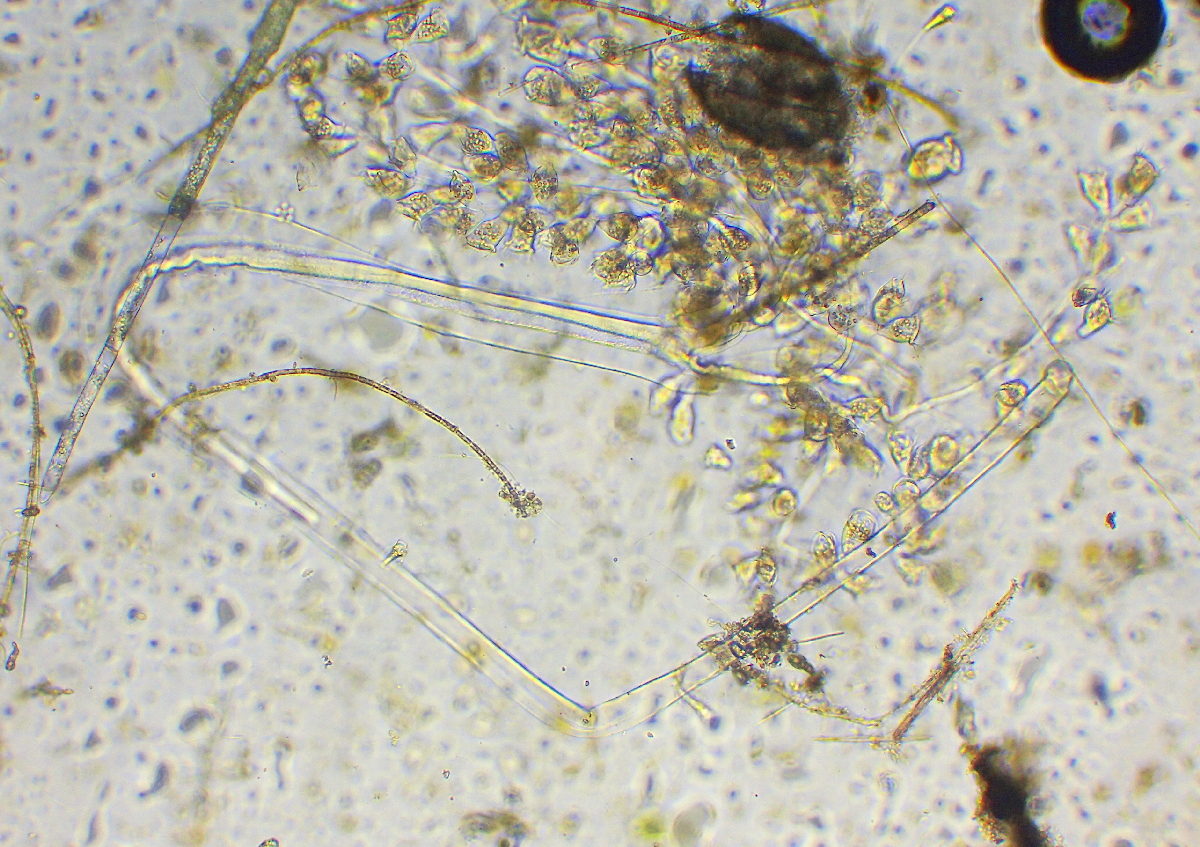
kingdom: Chromista
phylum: Ciliophora
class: Oligohymenophorea
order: Peritrichida
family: Zoothamniidae
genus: Zoothamnium
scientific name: Zoothamnium
